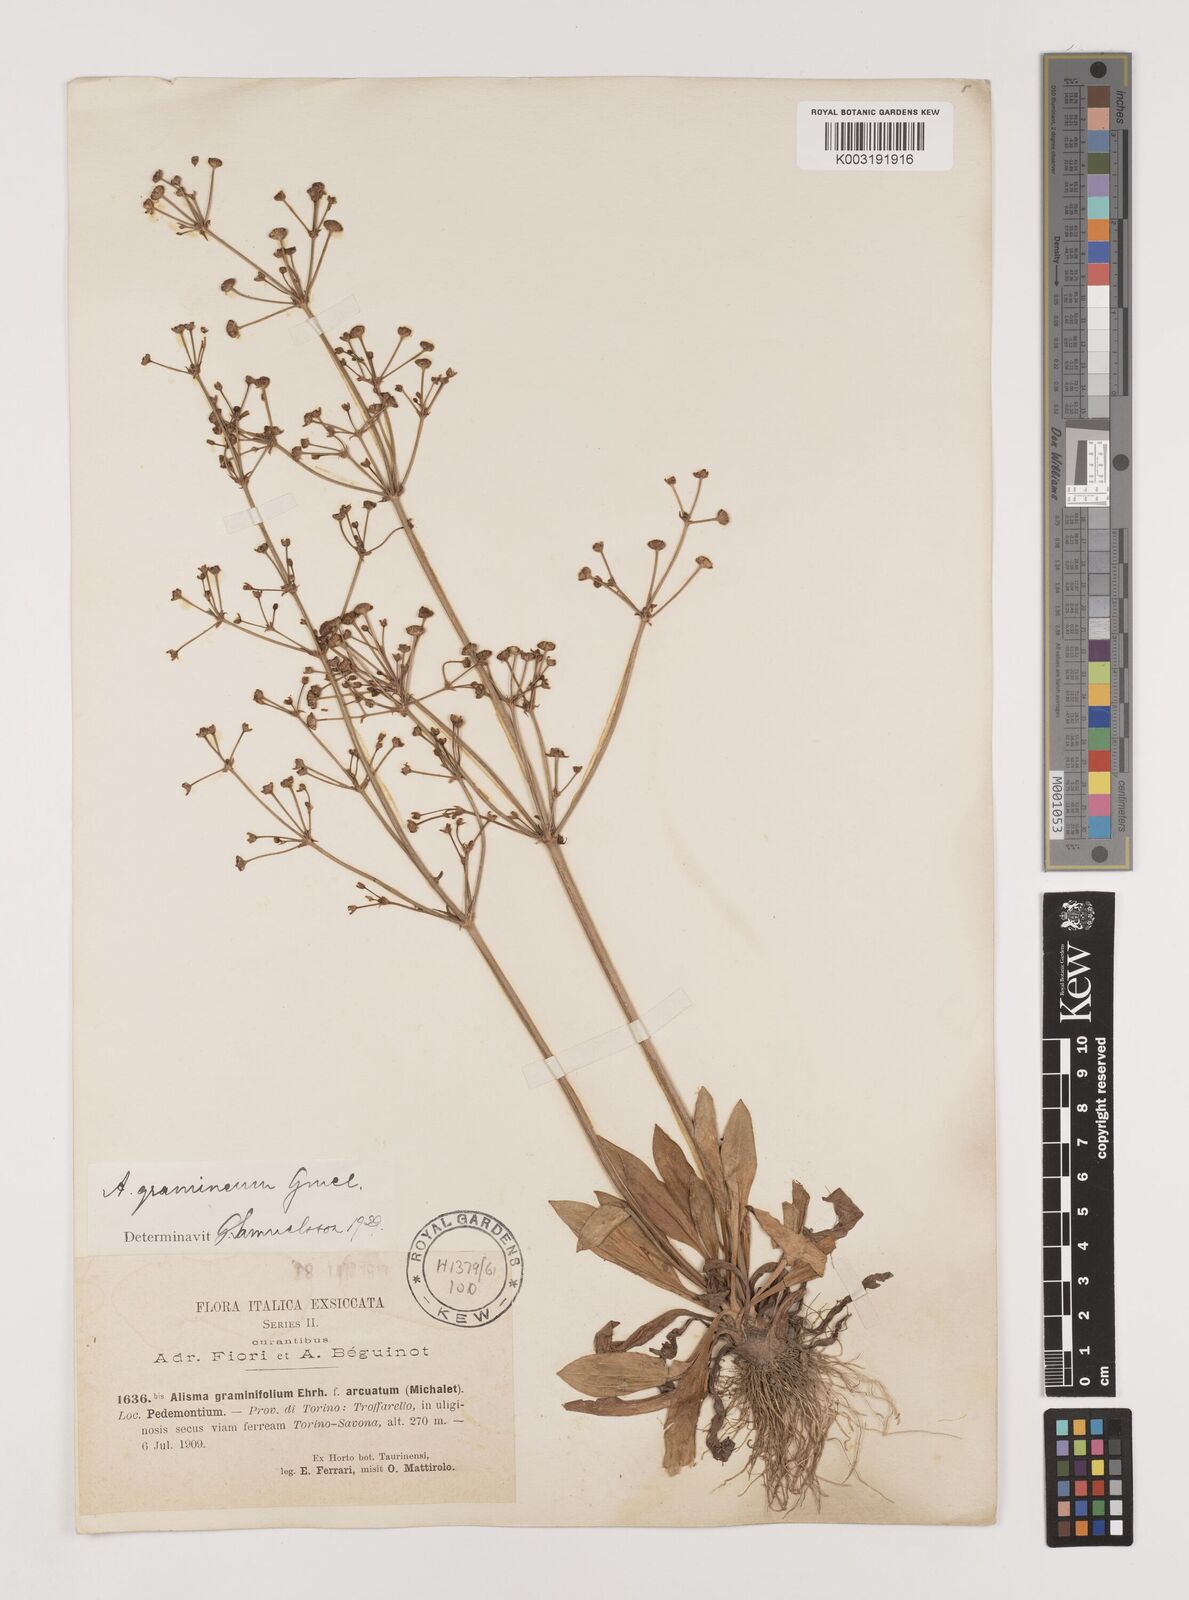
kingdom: Plantae
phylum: Tracheophyta
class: Liliopsida
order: Alismatales
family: Alismataceae
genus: Alisma
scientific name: Alisma gramineum
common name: Ribbon-leaved water-plantain
